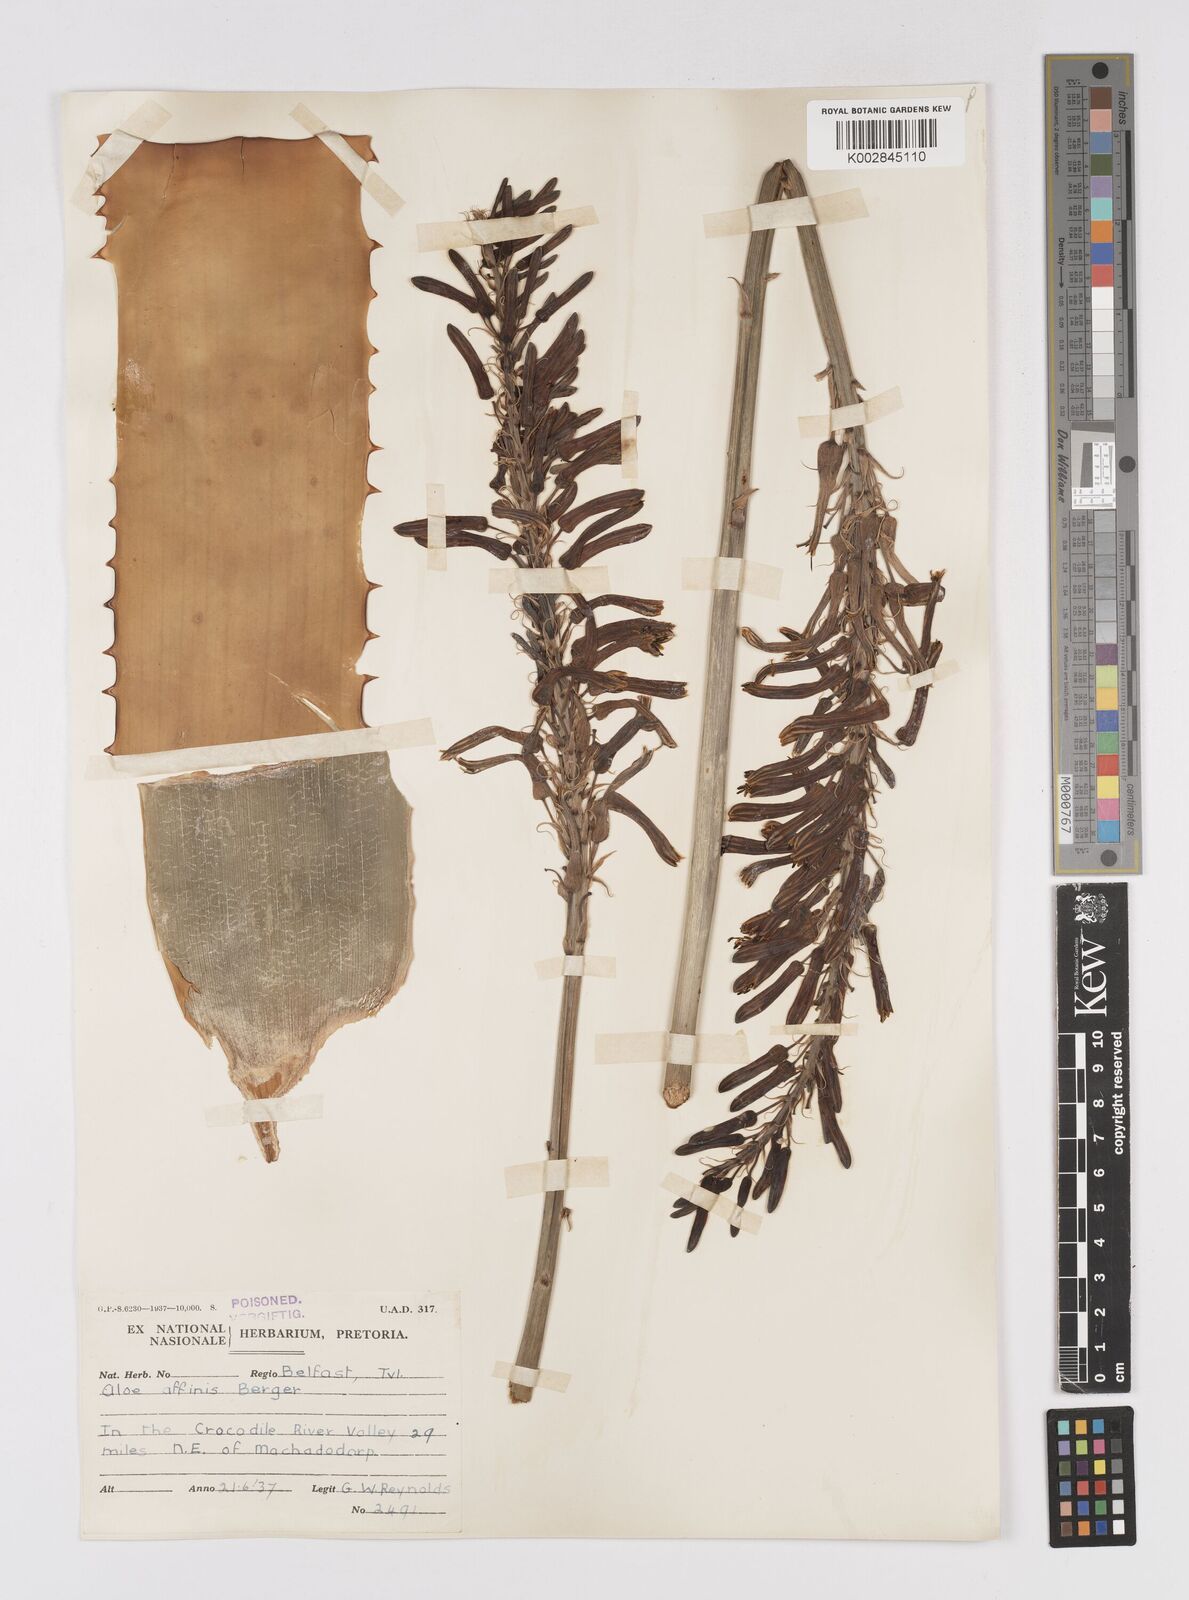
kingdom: Plantae
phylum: Tracheophyta
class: Liliopsida
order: Asparagales
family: Asphodelaceae
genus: Aloe
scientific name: Aloe affinis
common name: Spotted aloe
